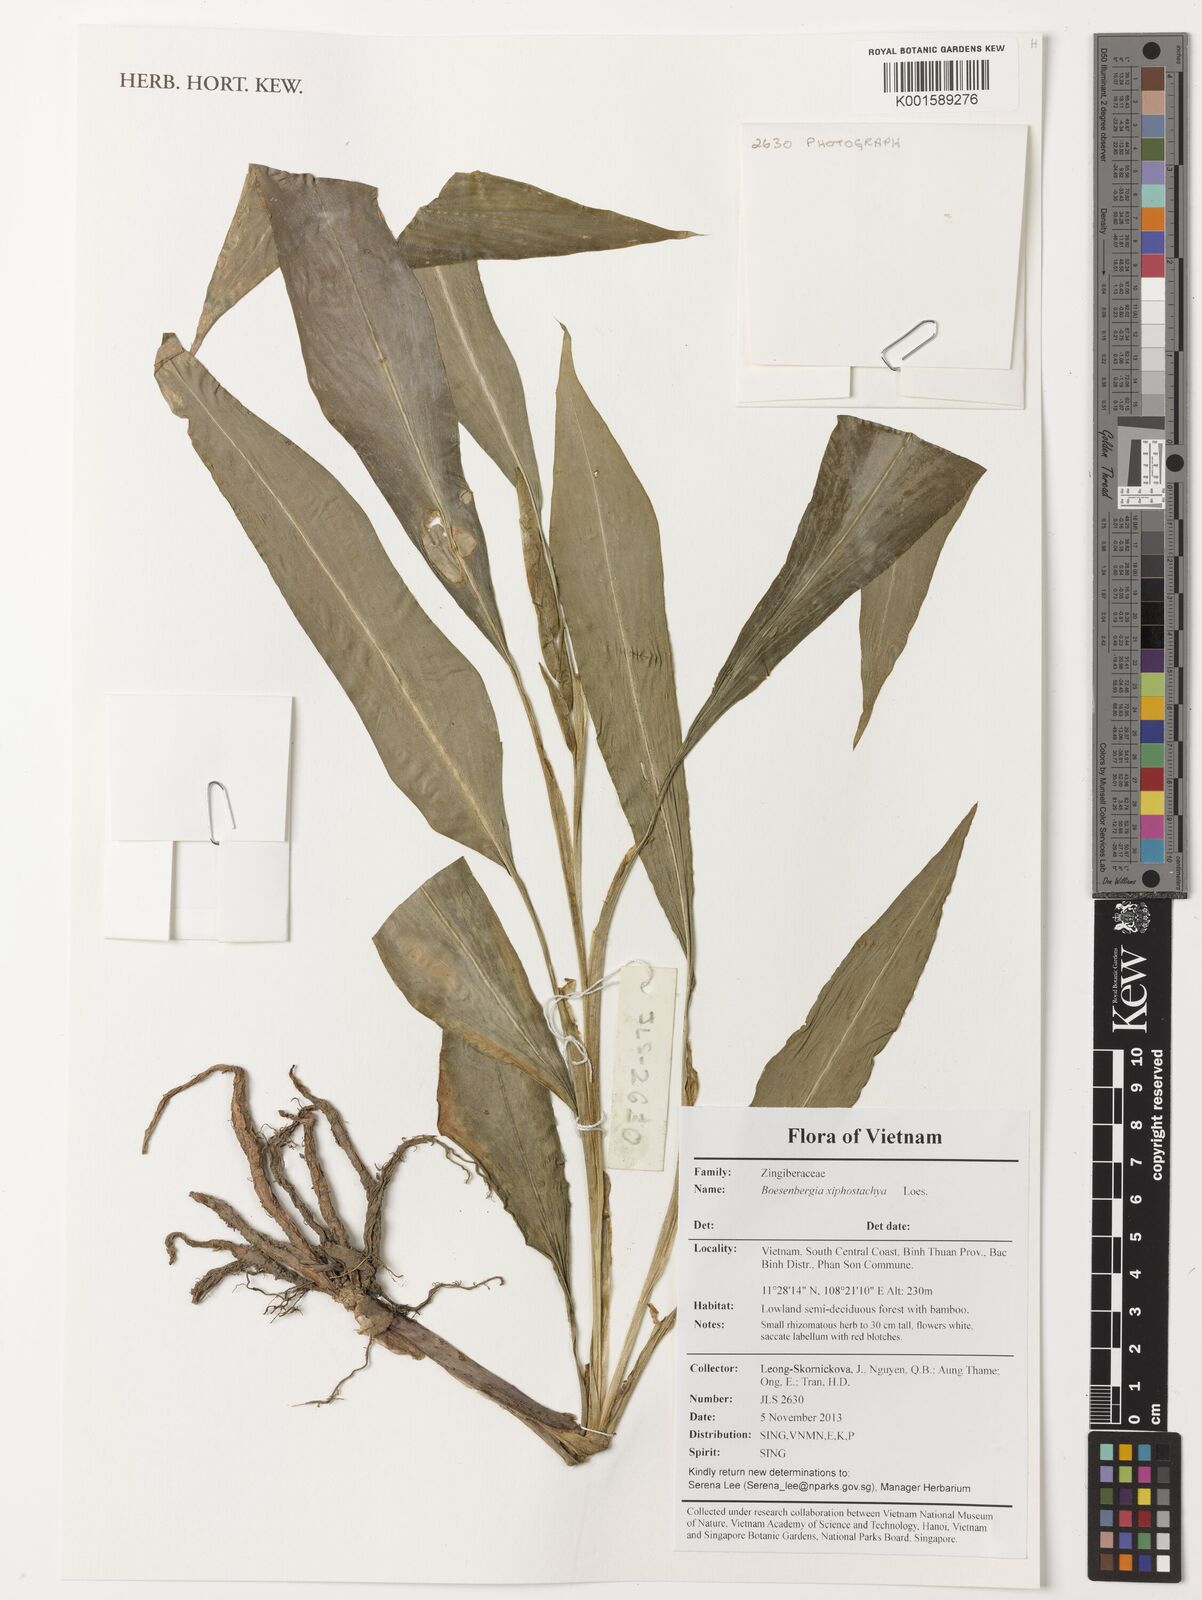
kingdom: Plantae
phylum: Tracheophyta
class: Liliopsida
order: Zingiberales
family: Zingiberaceae
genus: Boesenbergia
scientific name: Boesenbergia xiphostachya
